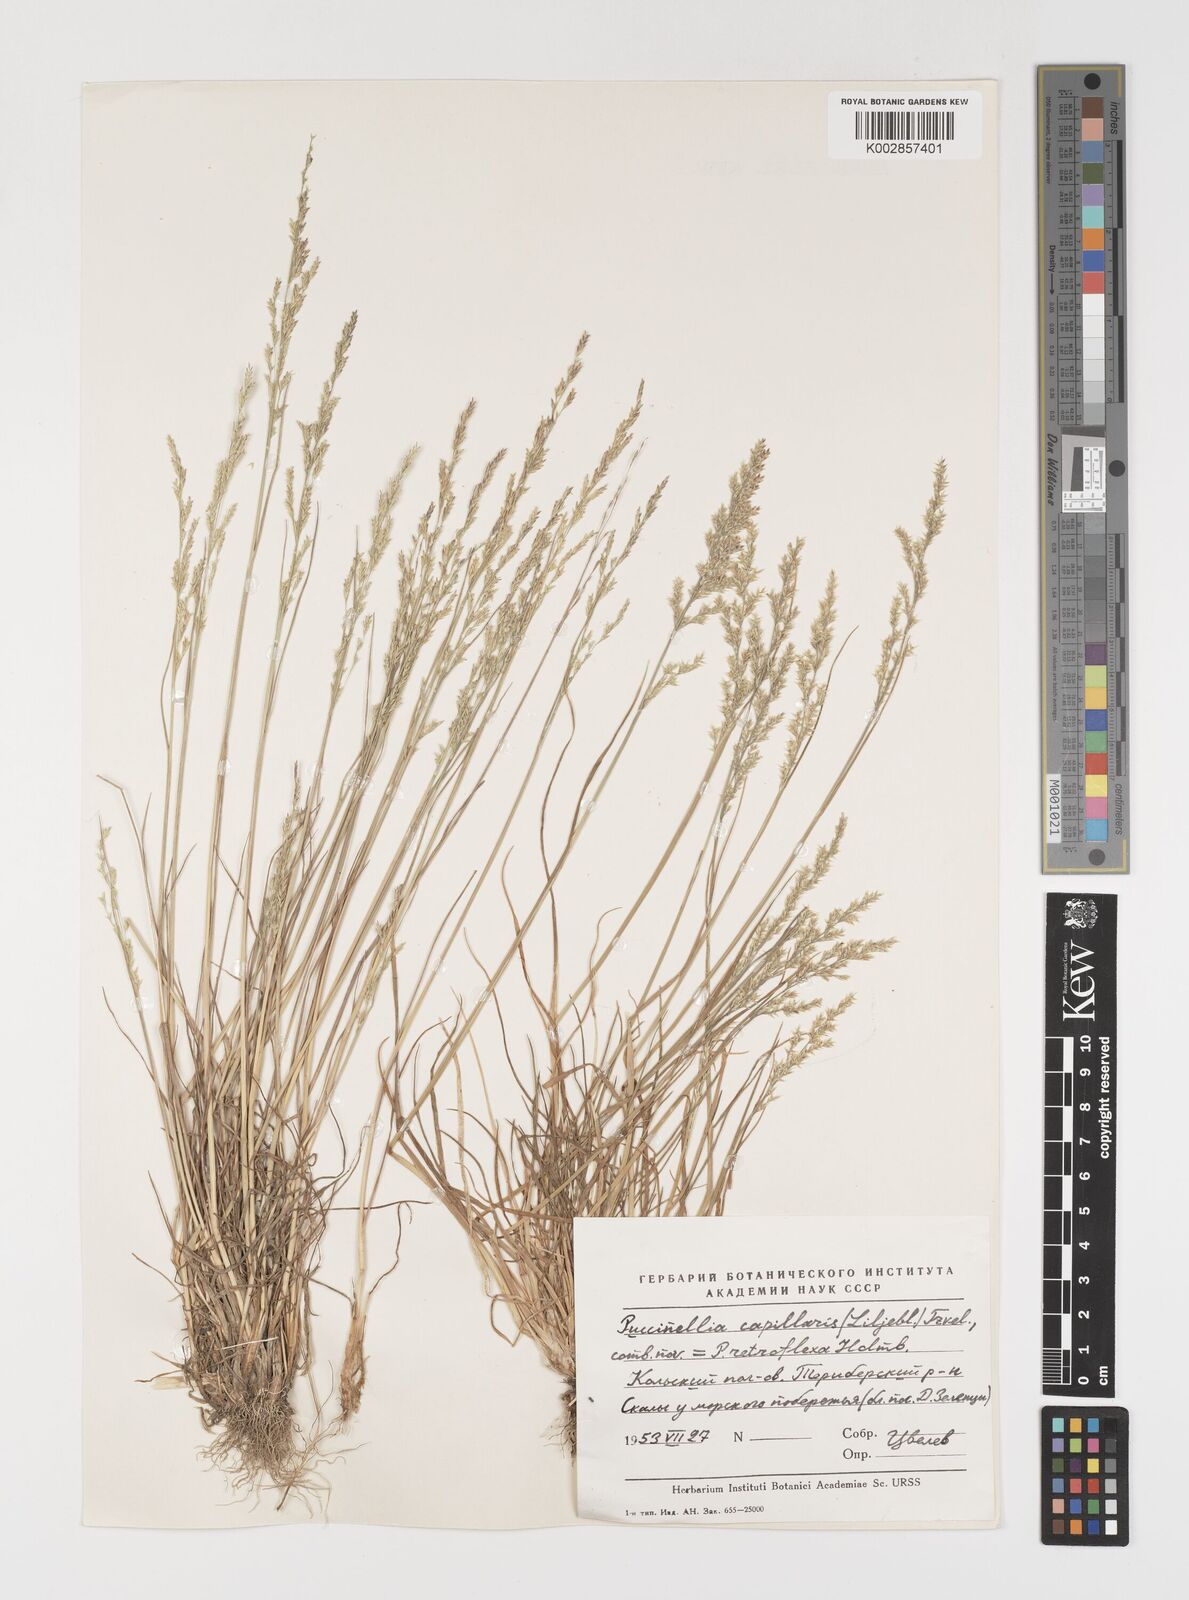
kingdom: Plantae
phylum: Tracheophyta
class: Liliopsida
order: Poales
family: Poaceae
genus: Puccinellia
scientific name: Puccinellia distans
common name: Weeping alkaligrass
